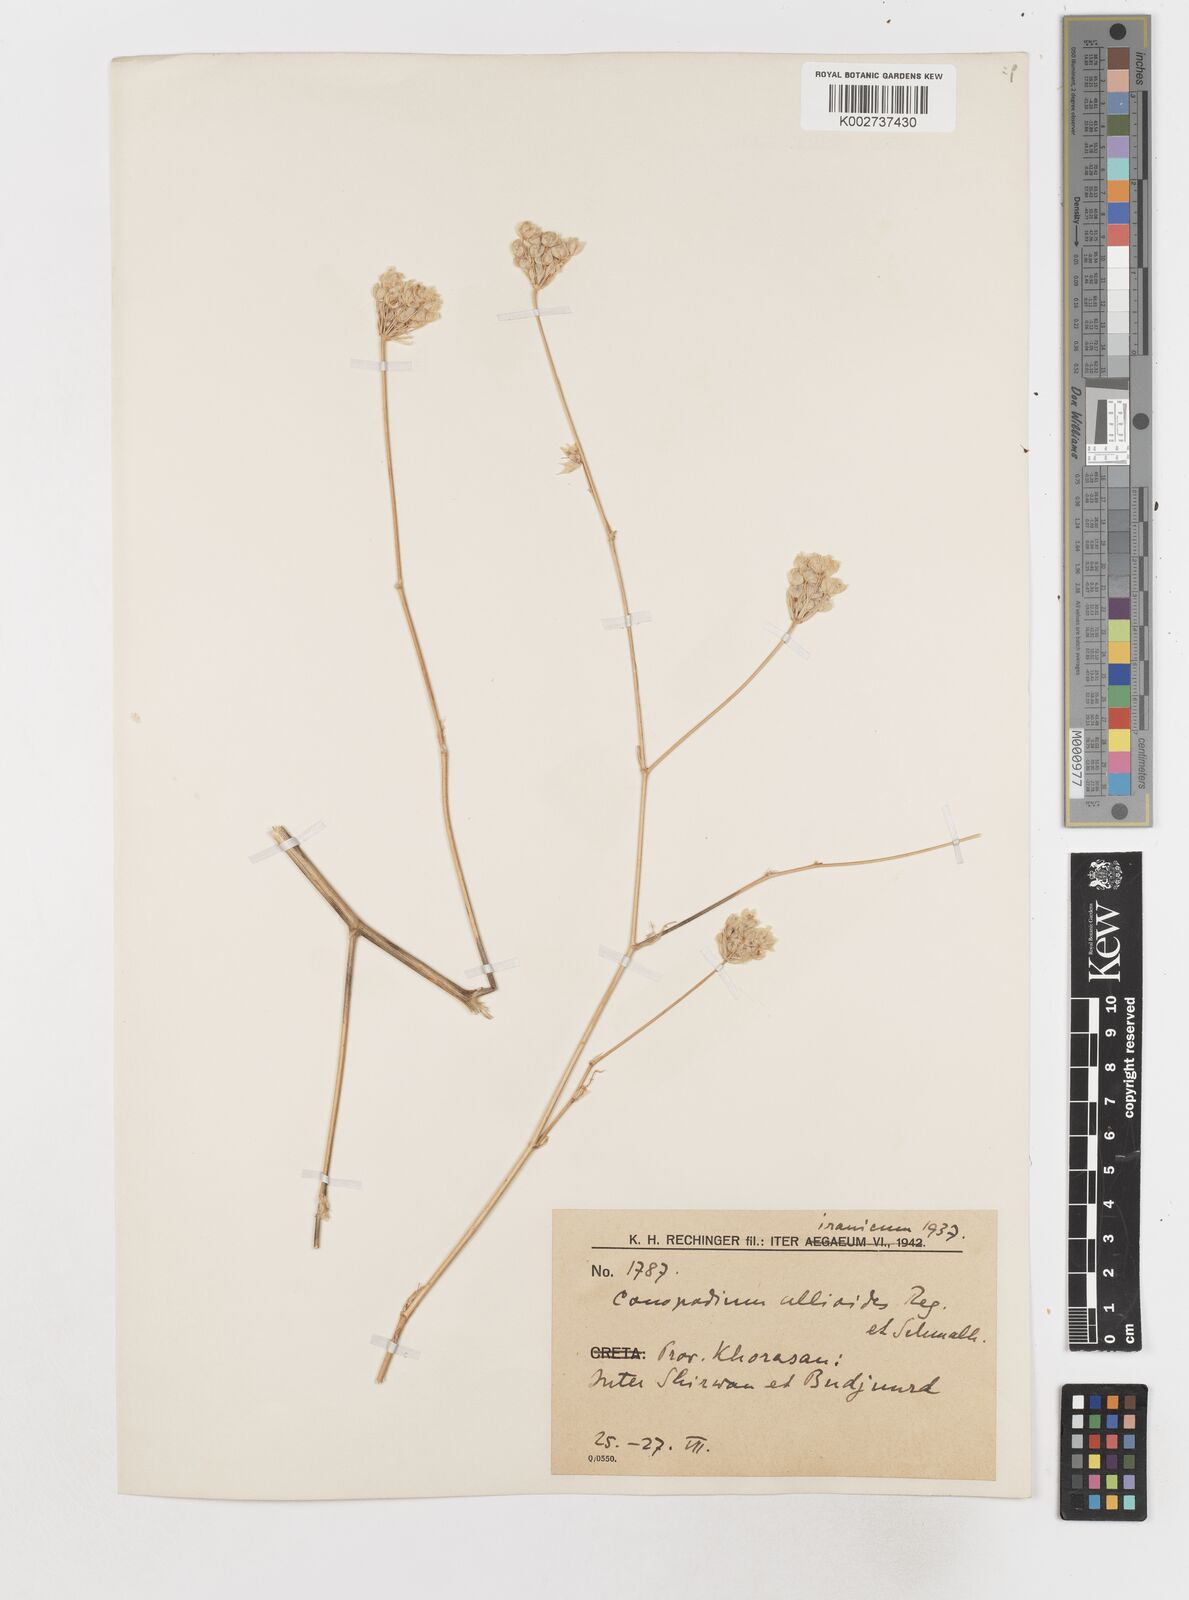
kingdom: Plantae
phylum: Tracheophyta
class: Magnoliopsida
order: Apiales
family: Apiaceae
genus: Scaligeria
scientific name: Scaligeria allioides
